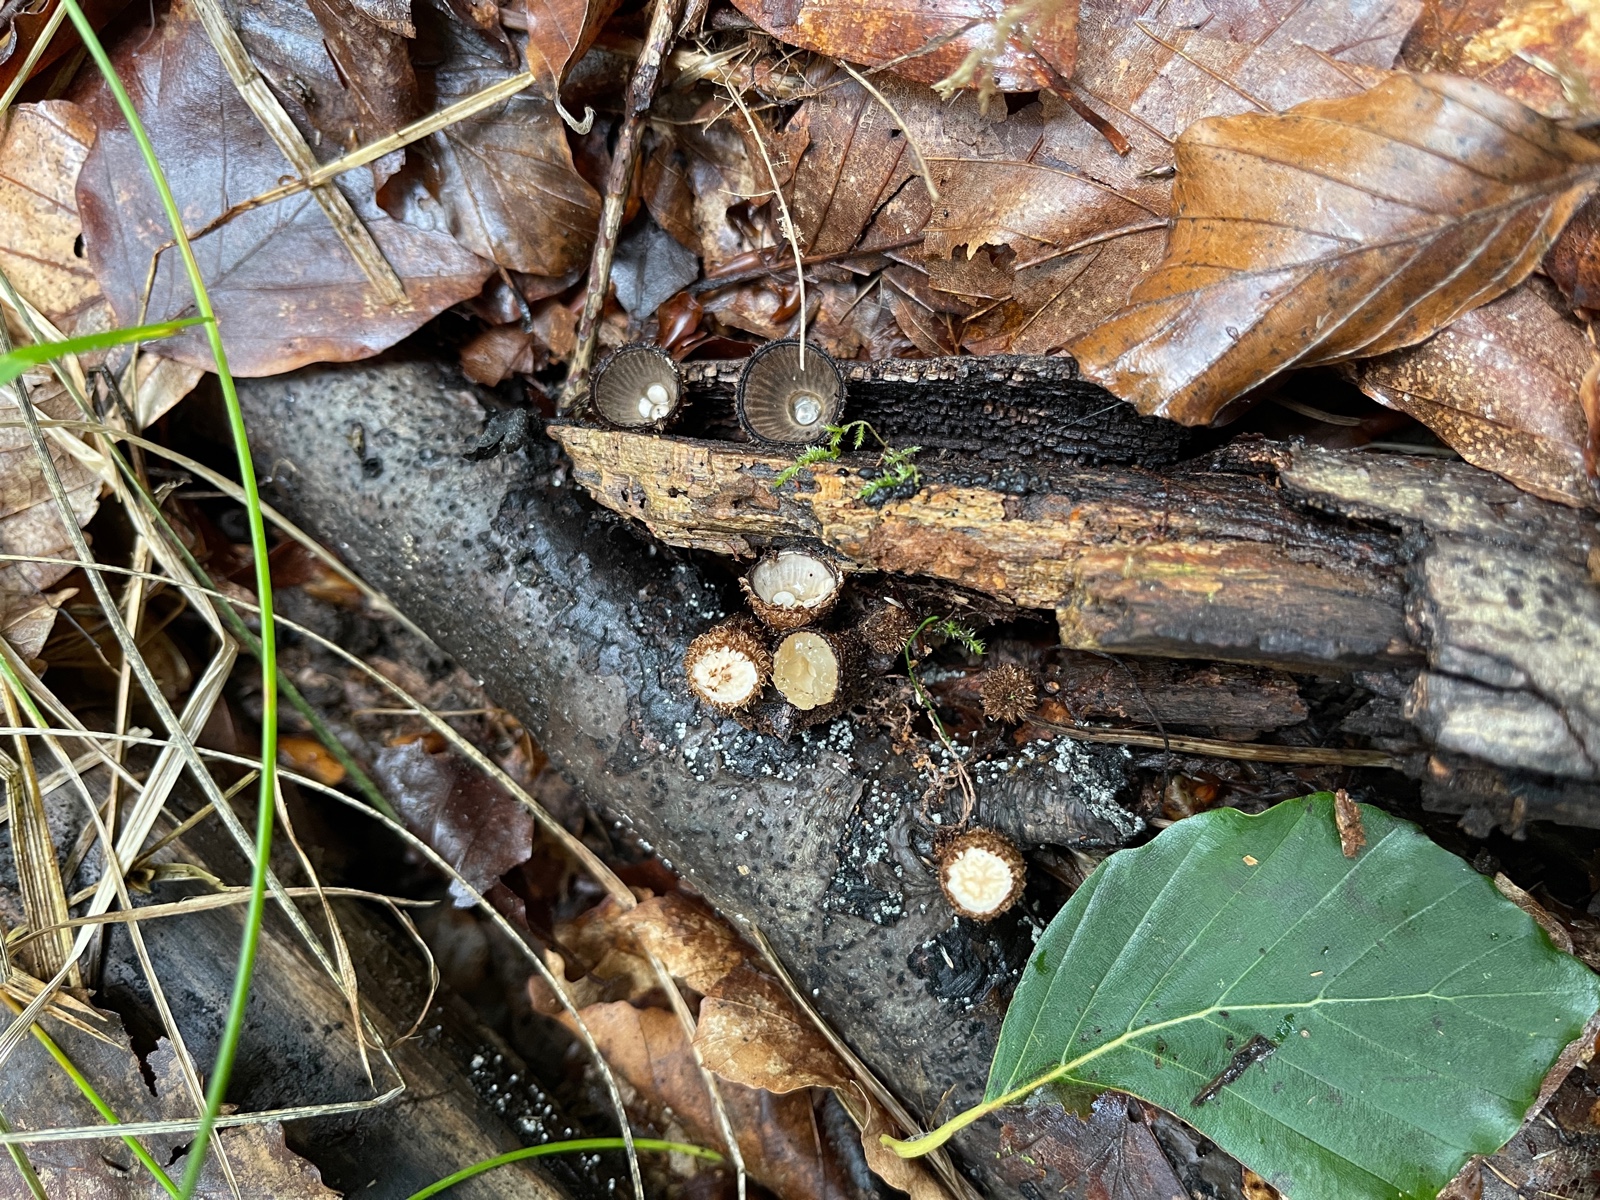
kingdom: Fungi
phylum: Basidiomycota
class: Agaricomycetes
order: Agaricales
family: Agaricaceae
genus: Cyathus
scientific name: Cyathus striatus
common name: stribet redesvamp
